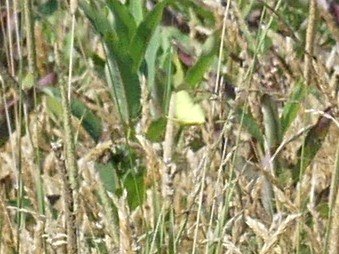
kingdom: Animalia
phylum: Arthropoda
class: Insecta
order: Lepidoptera
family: Pieridae
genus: Colias
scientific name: Colias philodice
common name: Clouded Sulphur
